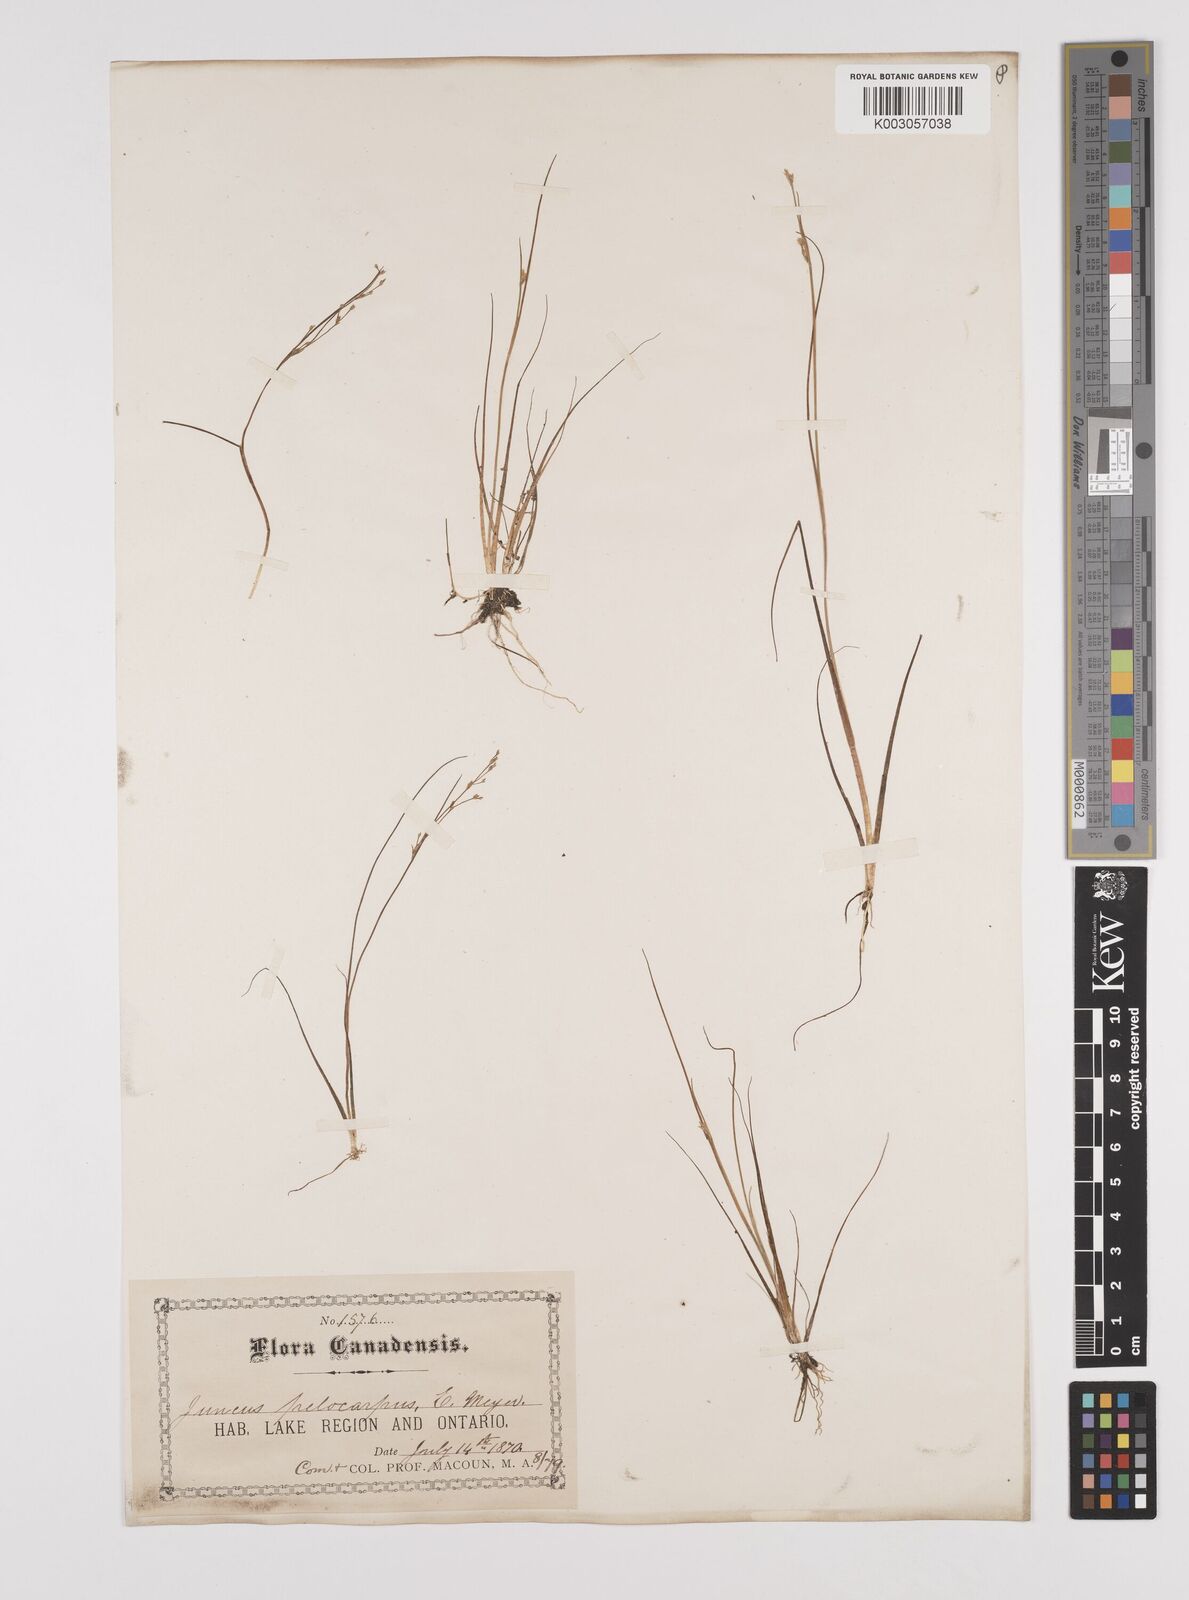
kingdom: Plantae
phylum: Tracheophyta
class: Liliopsida
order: Poales
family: Juncaceae
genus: Juncus
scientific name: Juncus pelocarpus
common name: Brown-fruited rush
